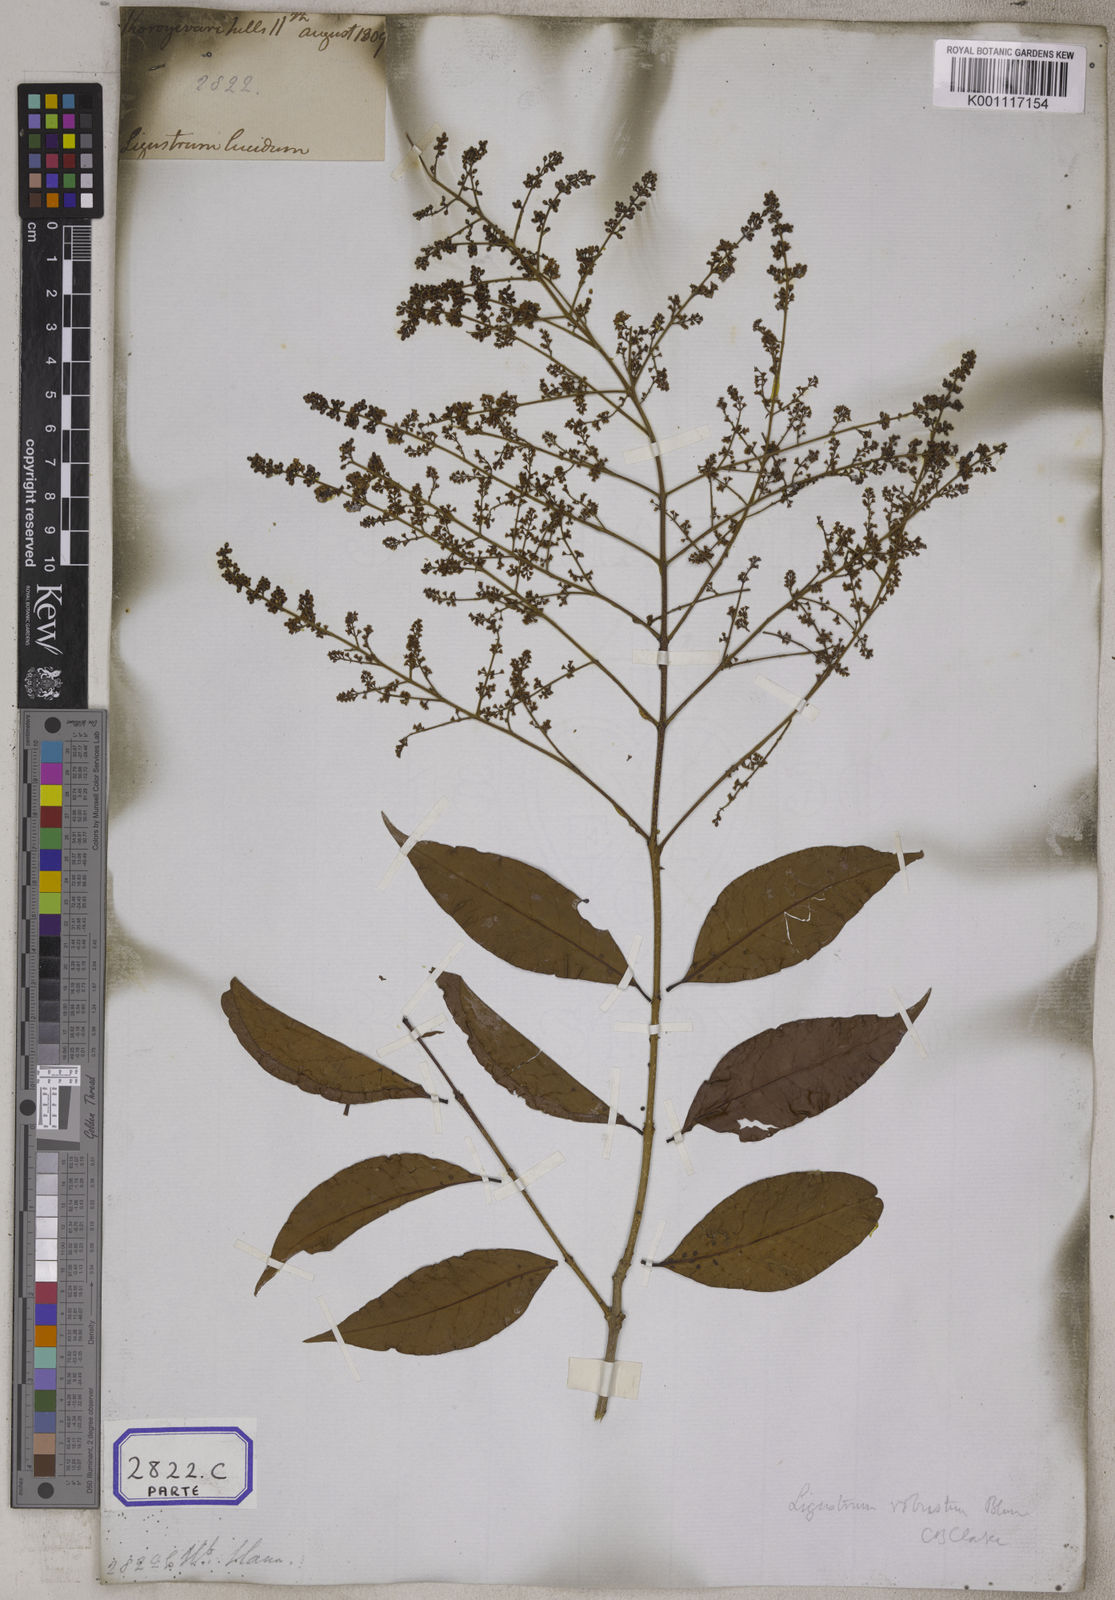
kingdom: Plantae
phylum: Tracheophyta
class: Magnoliopsida
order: Lamiales
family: Oleaceae
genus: Olea
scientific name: Olea
